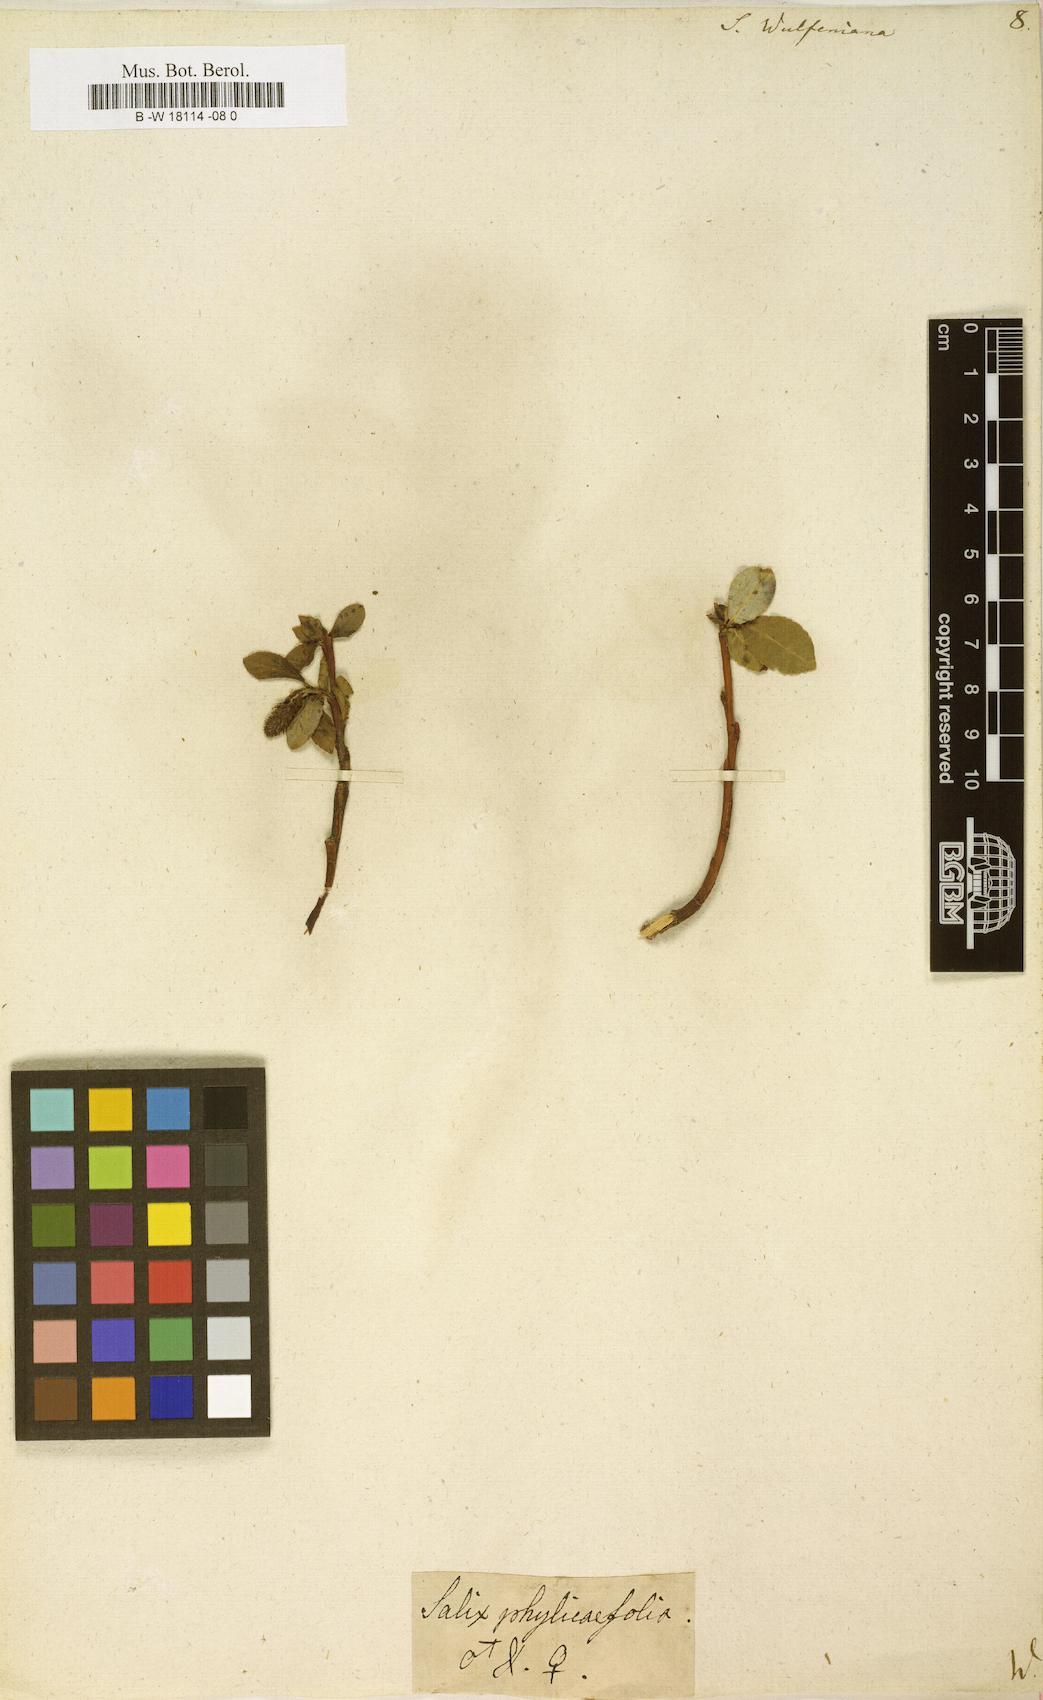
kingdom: Plantae
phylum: Tracheophyta
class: Magnoliopsida
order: Malpighiales
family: Salicaceae
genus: Salix
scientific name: Salix
